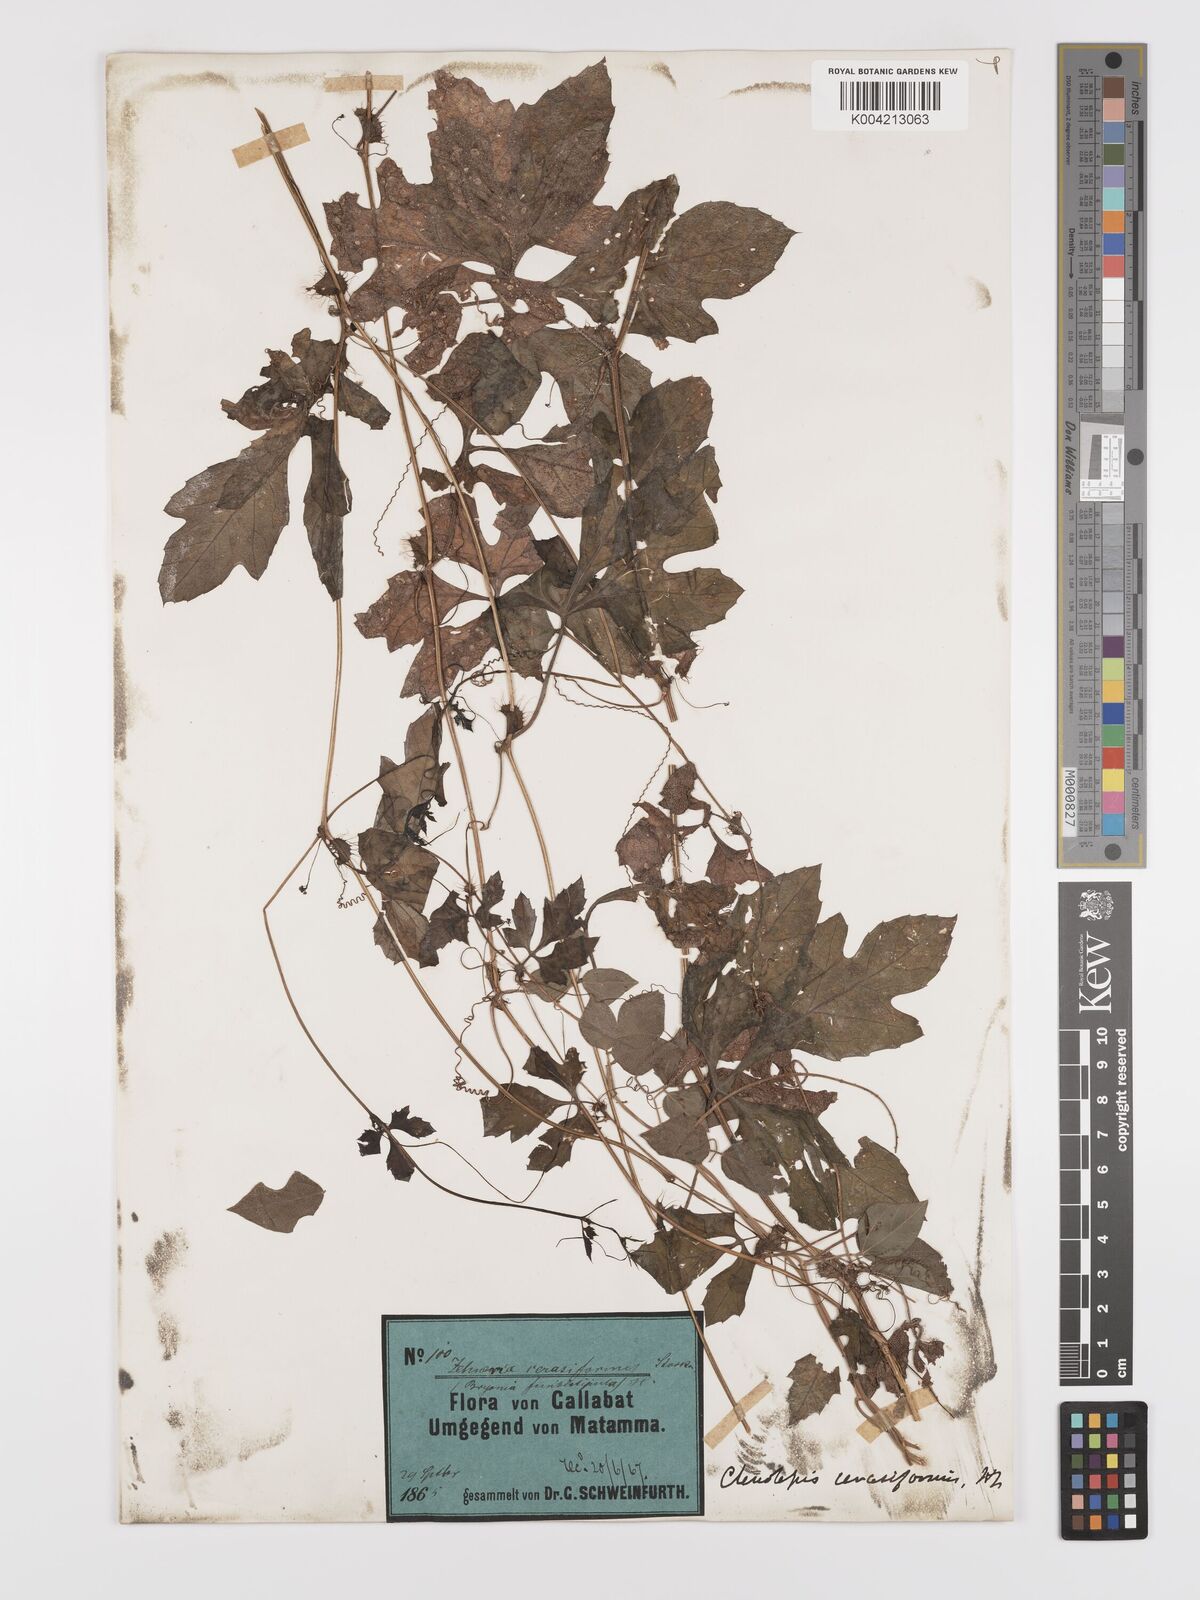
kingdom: Plantae
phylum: Tracheophyta
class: Magnoliopsida
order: Cucurbitales
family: Cucurbitaceae
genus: Blastania
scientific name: Blastania cerasiformis
